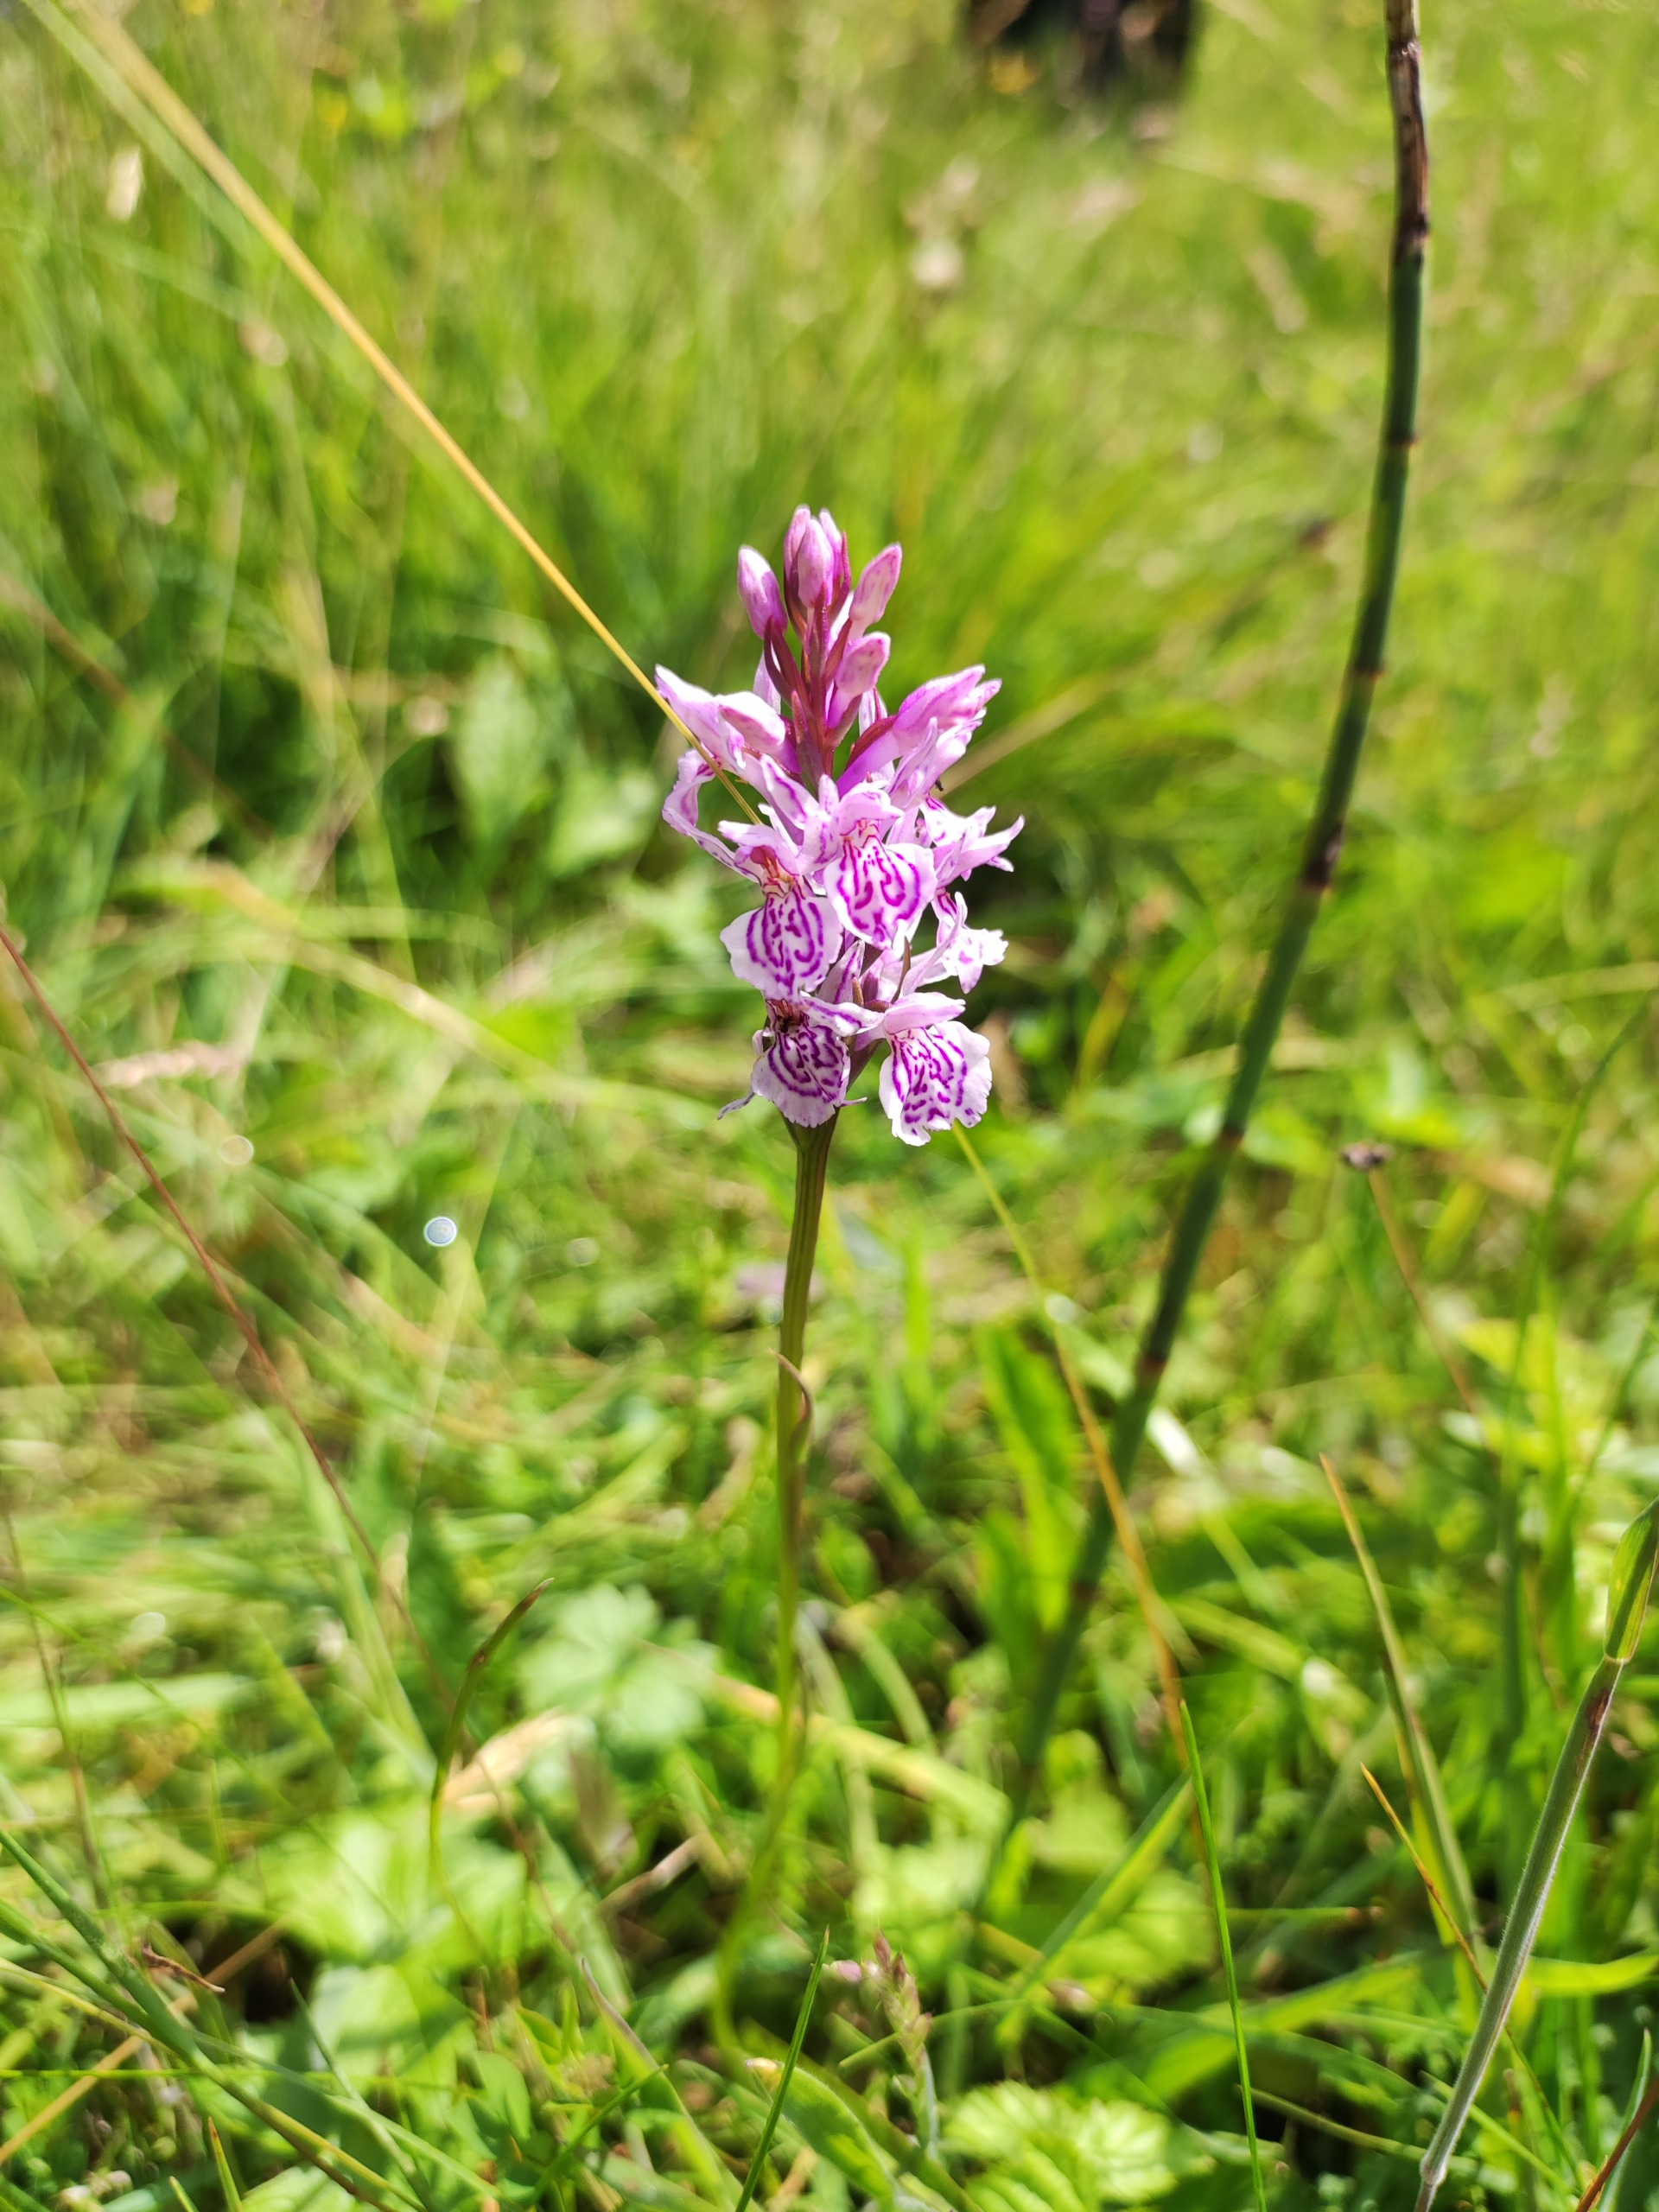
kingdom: Plantae
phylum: Tracheophyta
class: Liliopsida
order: Asparagales
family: Orchidaceae
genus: Dactylorhiza
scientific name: Dactylorhiza maculata
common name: Plettet gøgeurt (underart)
